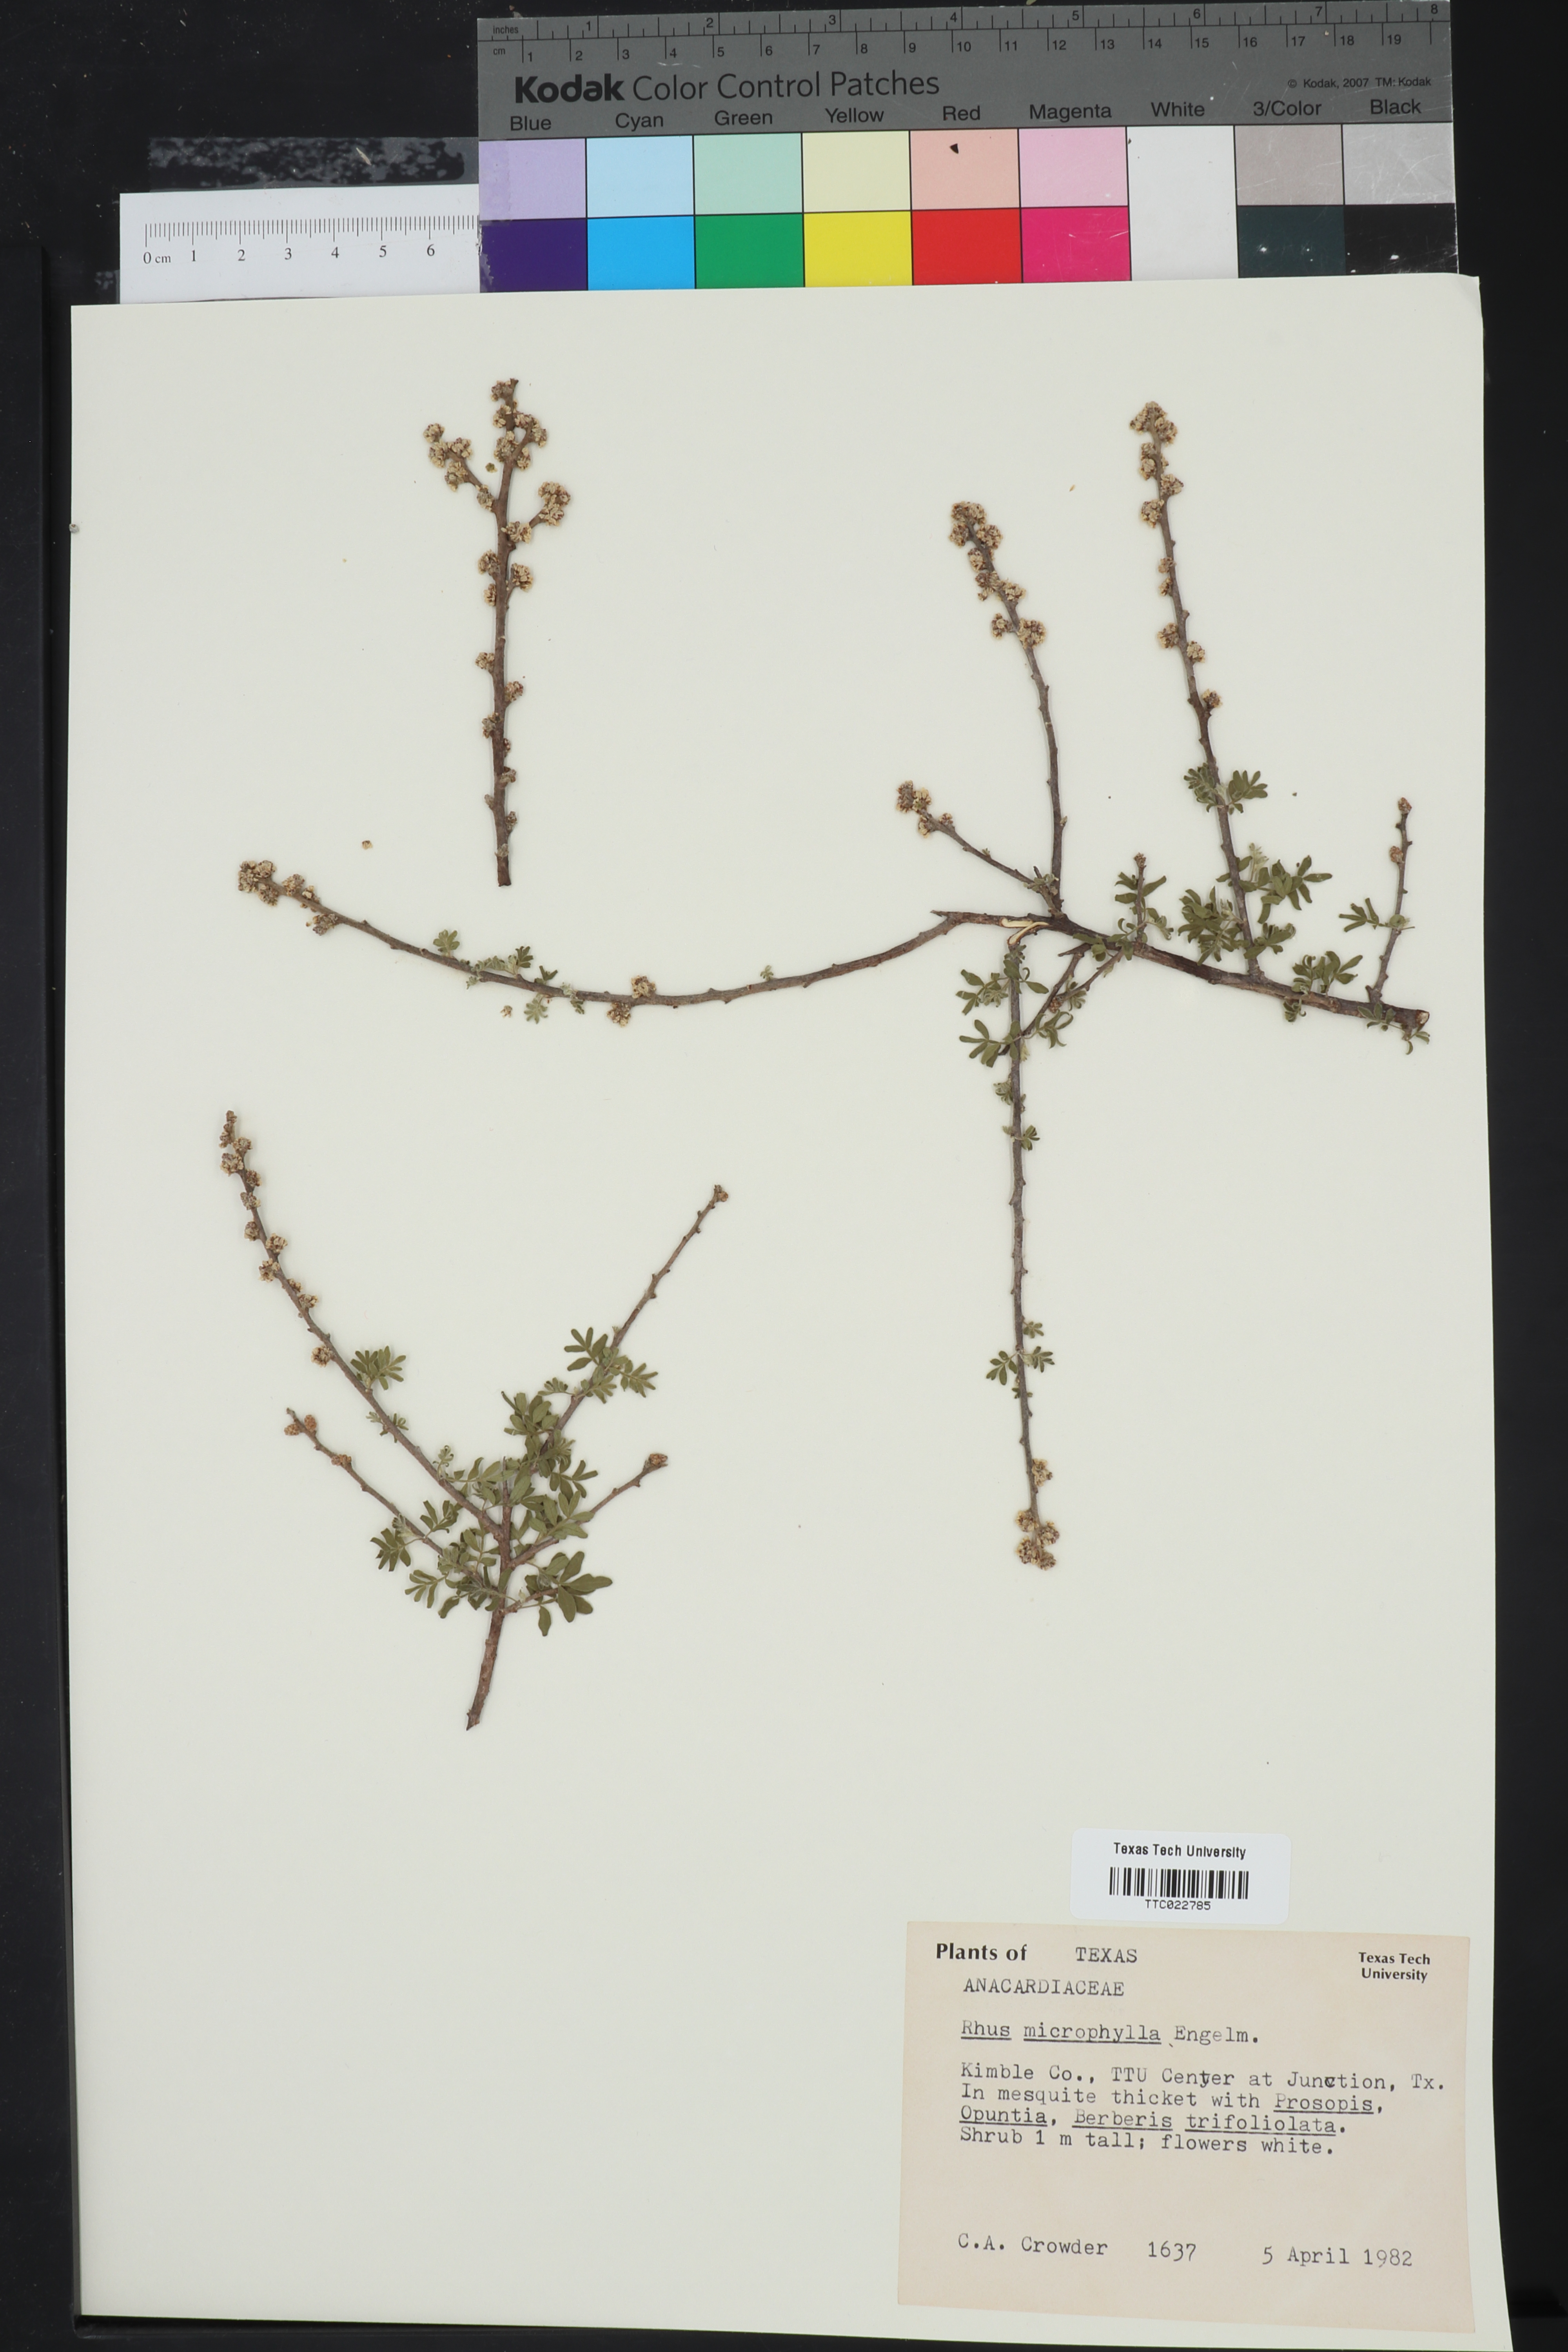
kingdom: Plantae
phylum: Tracheophyta
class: Magnoliopsida
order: Sapindales
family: Anacardiaceae
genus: Rhus
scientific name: Rhus microphylla
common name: Desert sumac
